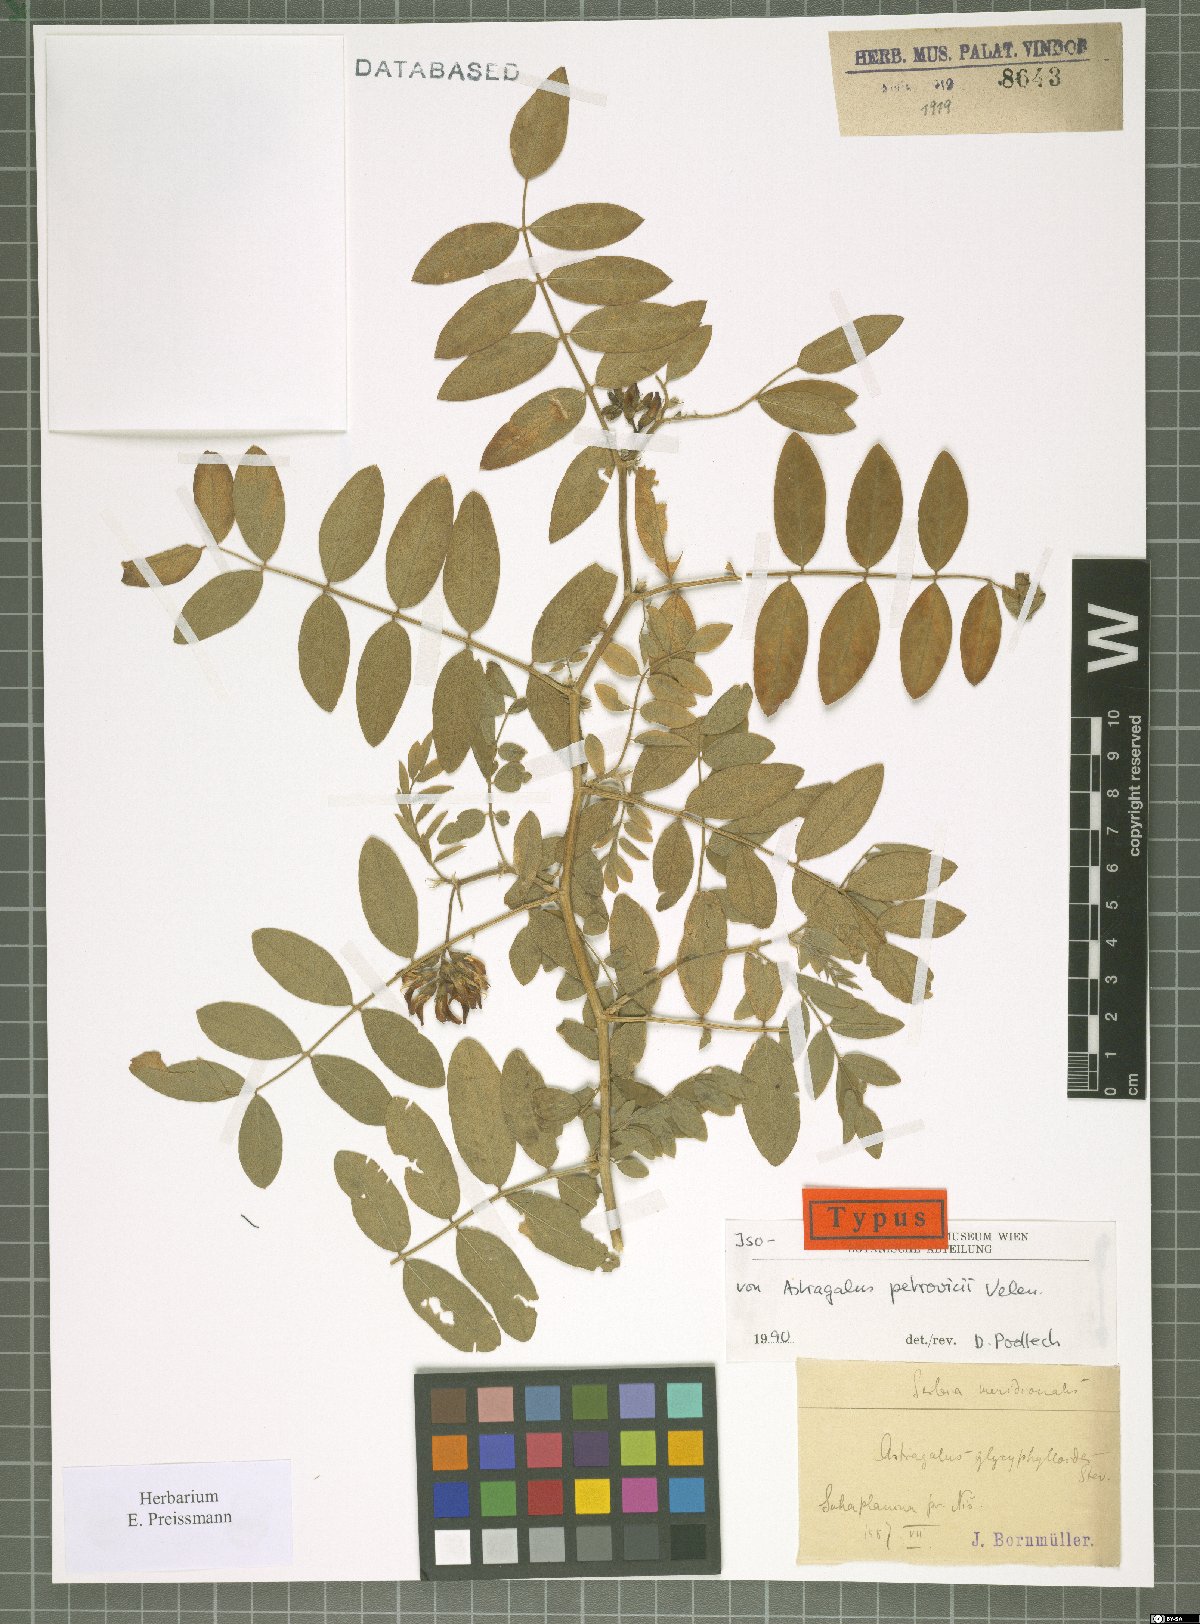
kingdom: Plantae
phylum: Tracheophyta
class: Magnoliopsida
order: Fabales
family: Fabaceae
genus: Astragalus
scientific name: Astragalus glycyphylloides
